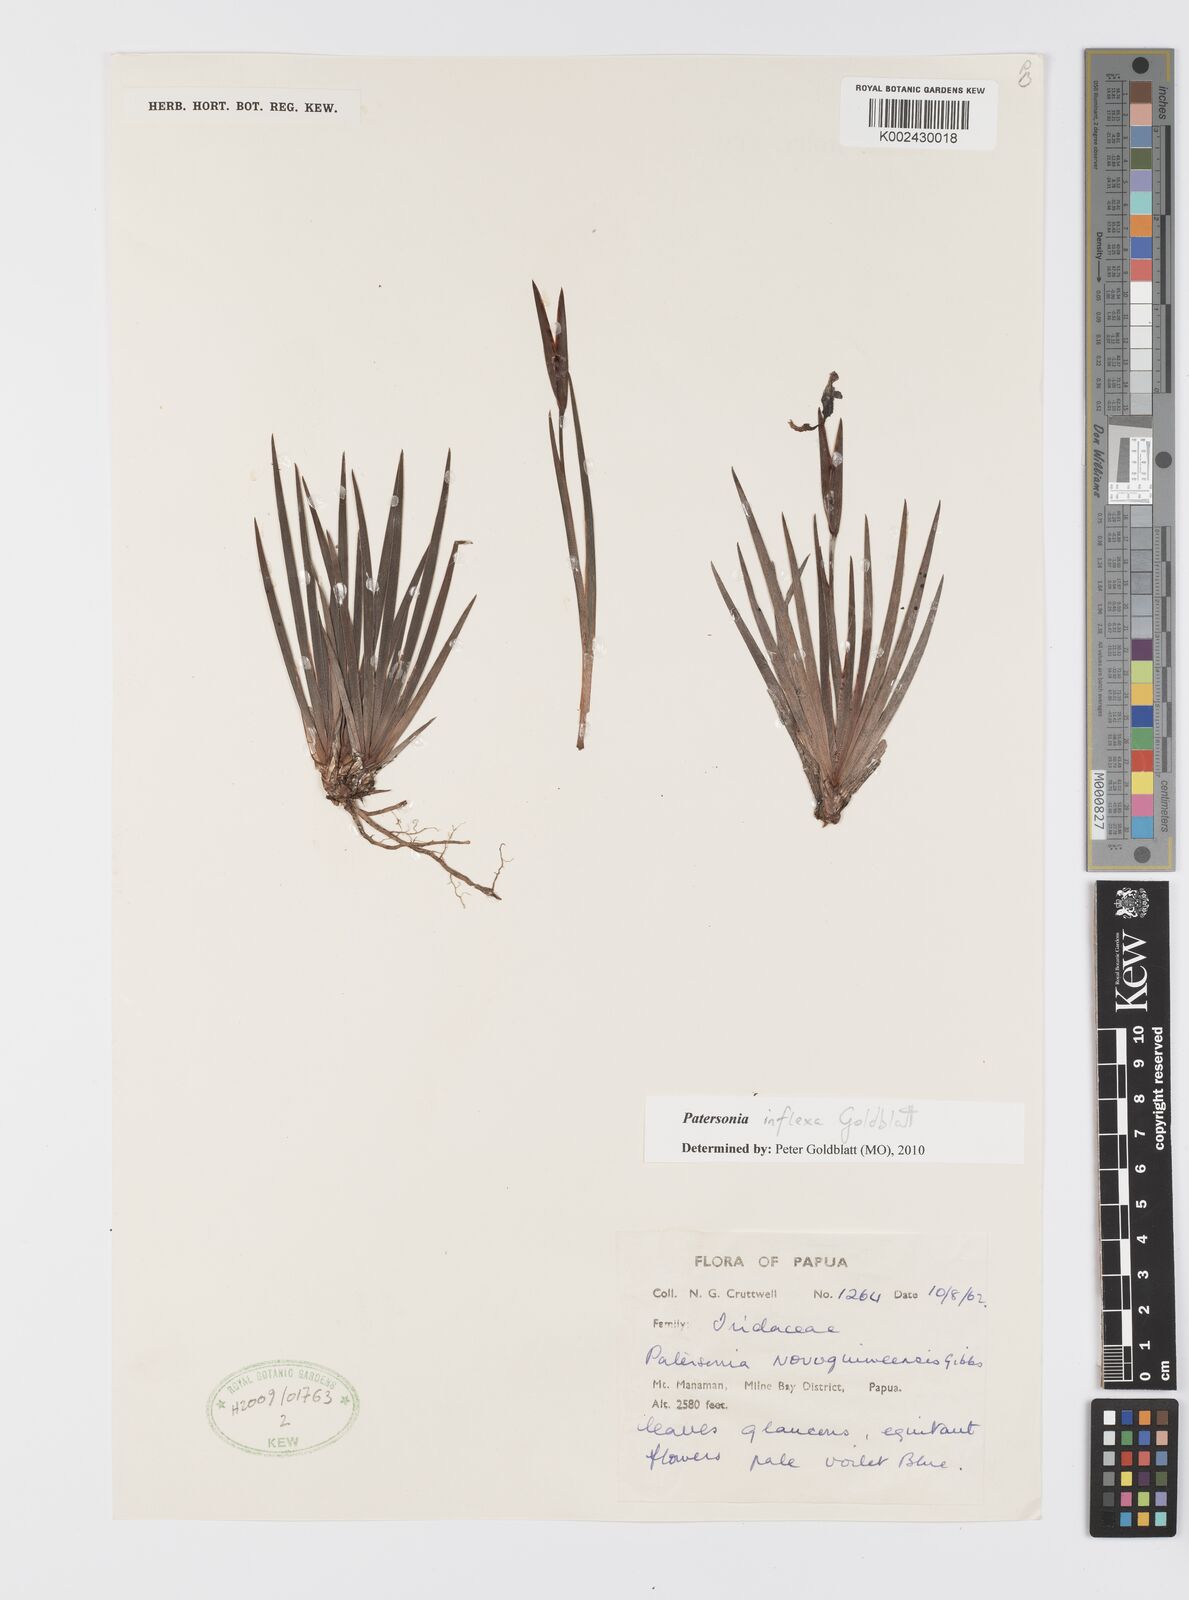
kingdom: Plantae
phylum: Tracheophyta
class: Liliopsida
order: Asparagales
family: Iridaceae
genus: Patersonia
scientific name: Patersonia novoguineensis
